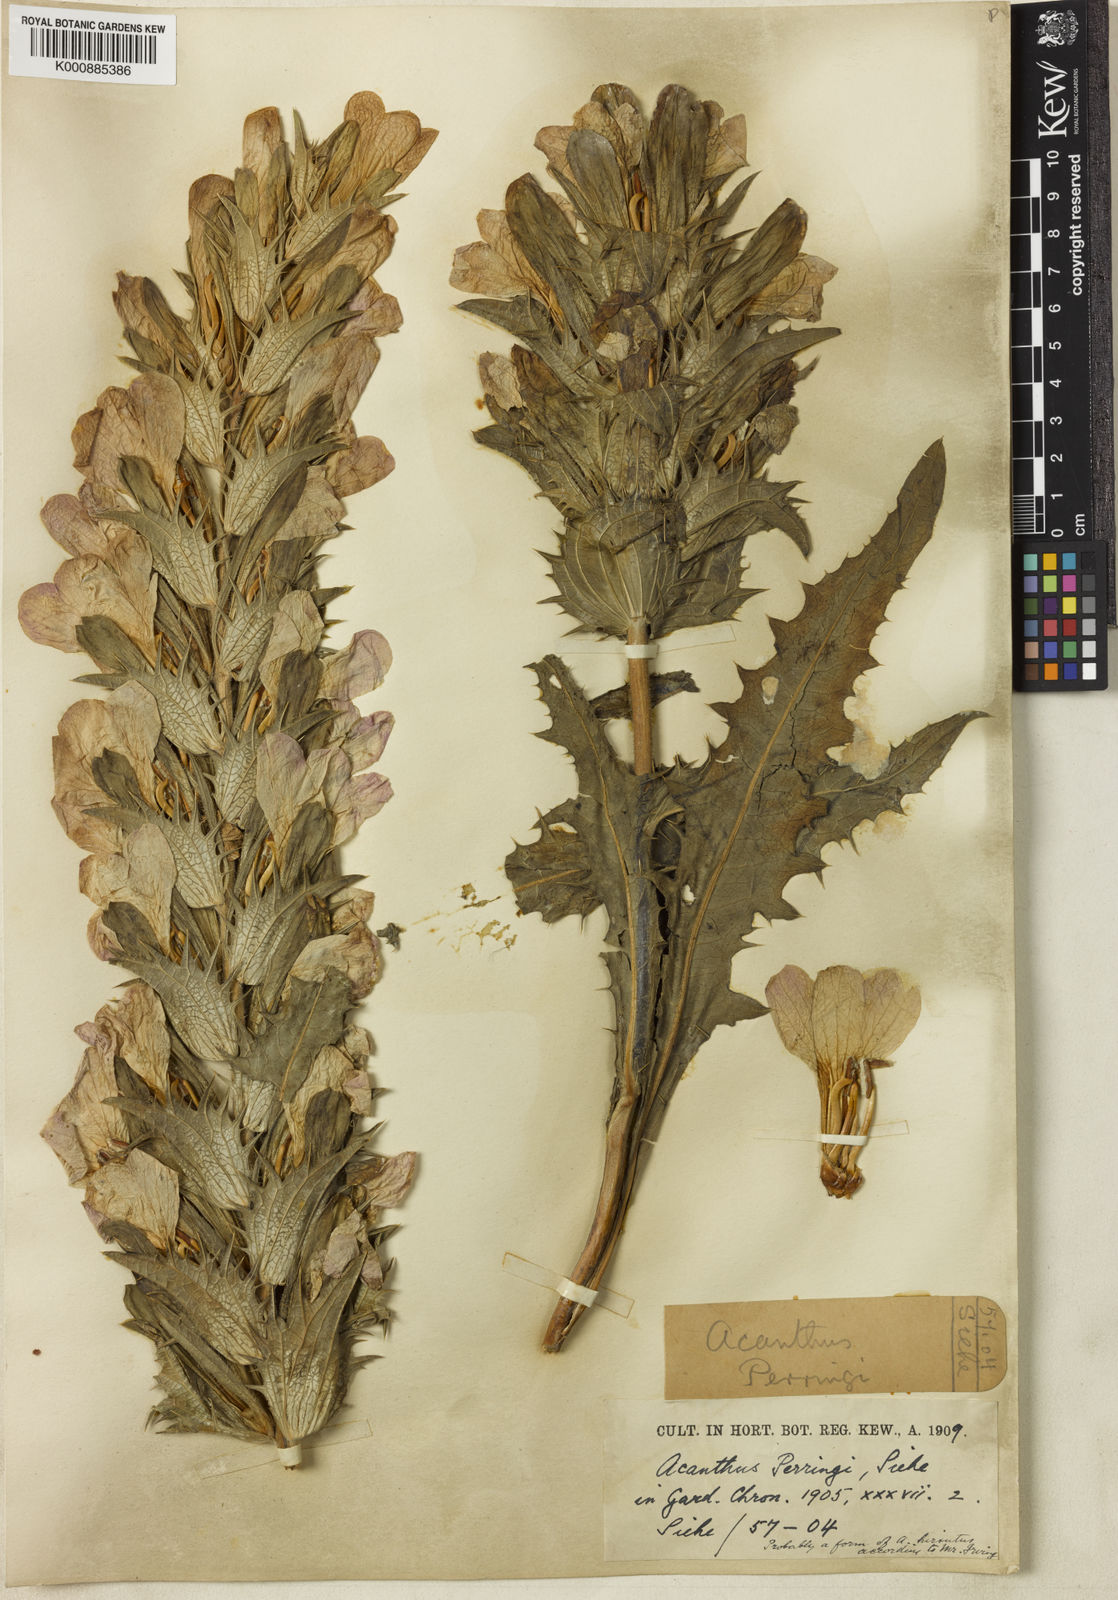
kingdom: Plantae
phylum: Tracheophyta
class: Magnoliopsida
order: Lamiales
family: Acanthaceae
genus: Acanthus
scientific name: Acanthus dioscoridis
